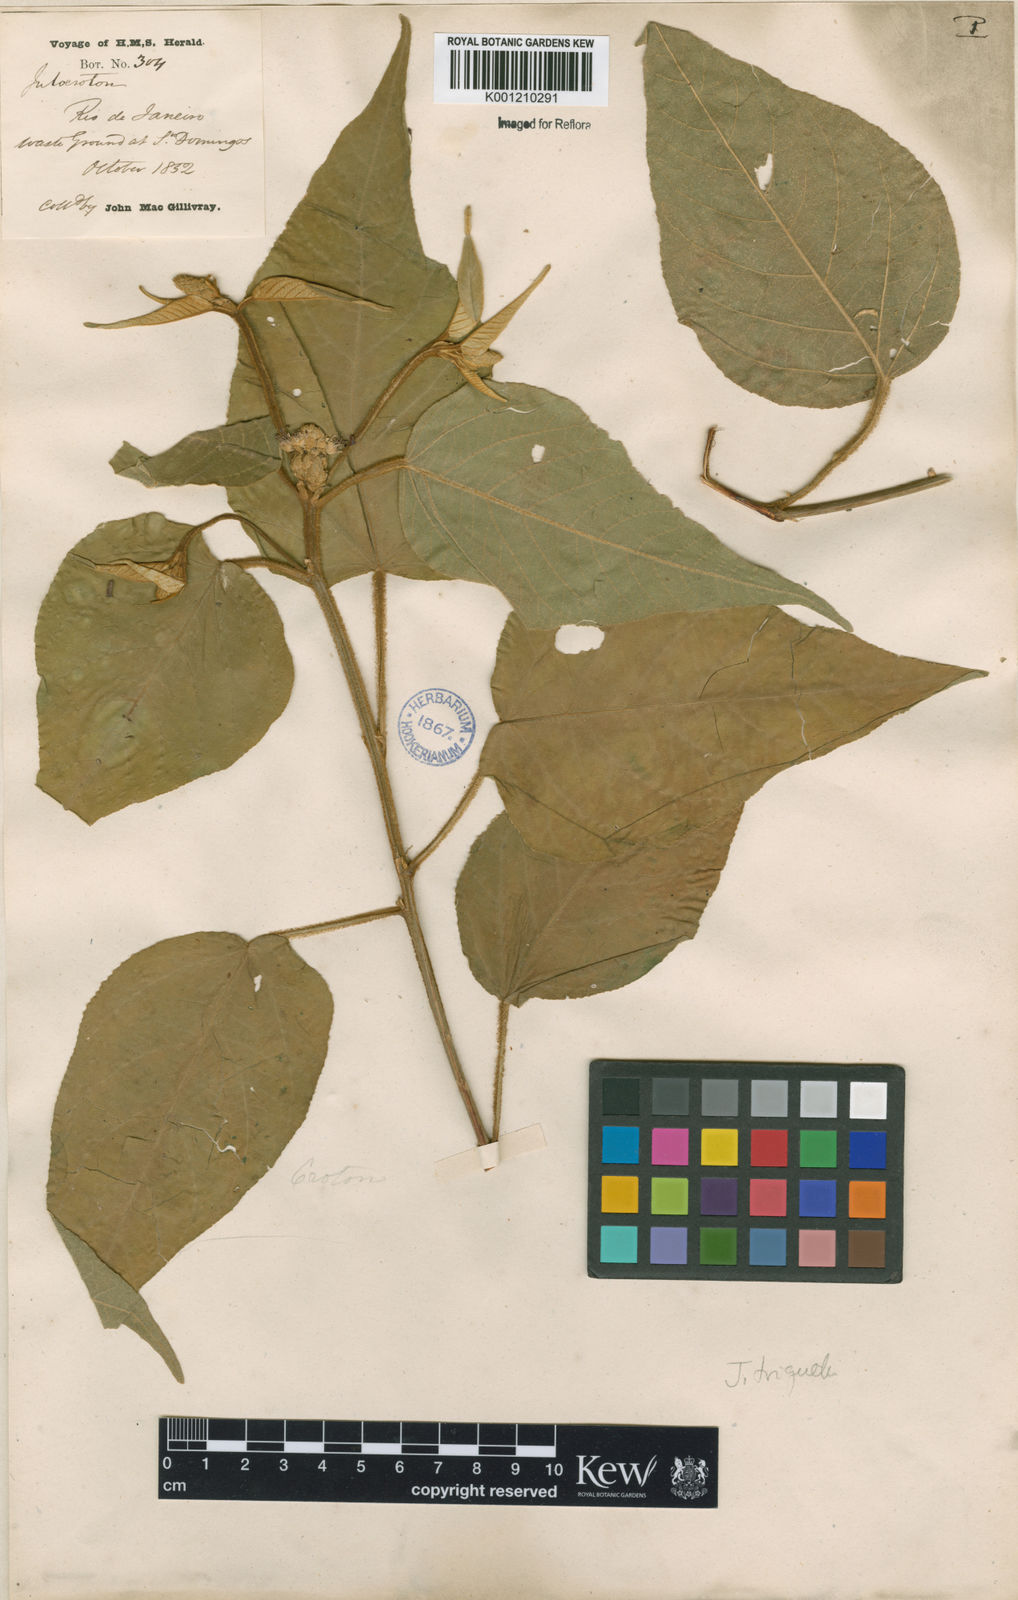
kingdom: Plantae
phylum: Tracheophyta
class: Magnoliopsida
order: Malpighiales
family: Euphorbiaceae
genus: Croton
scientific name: Croton triqueter
